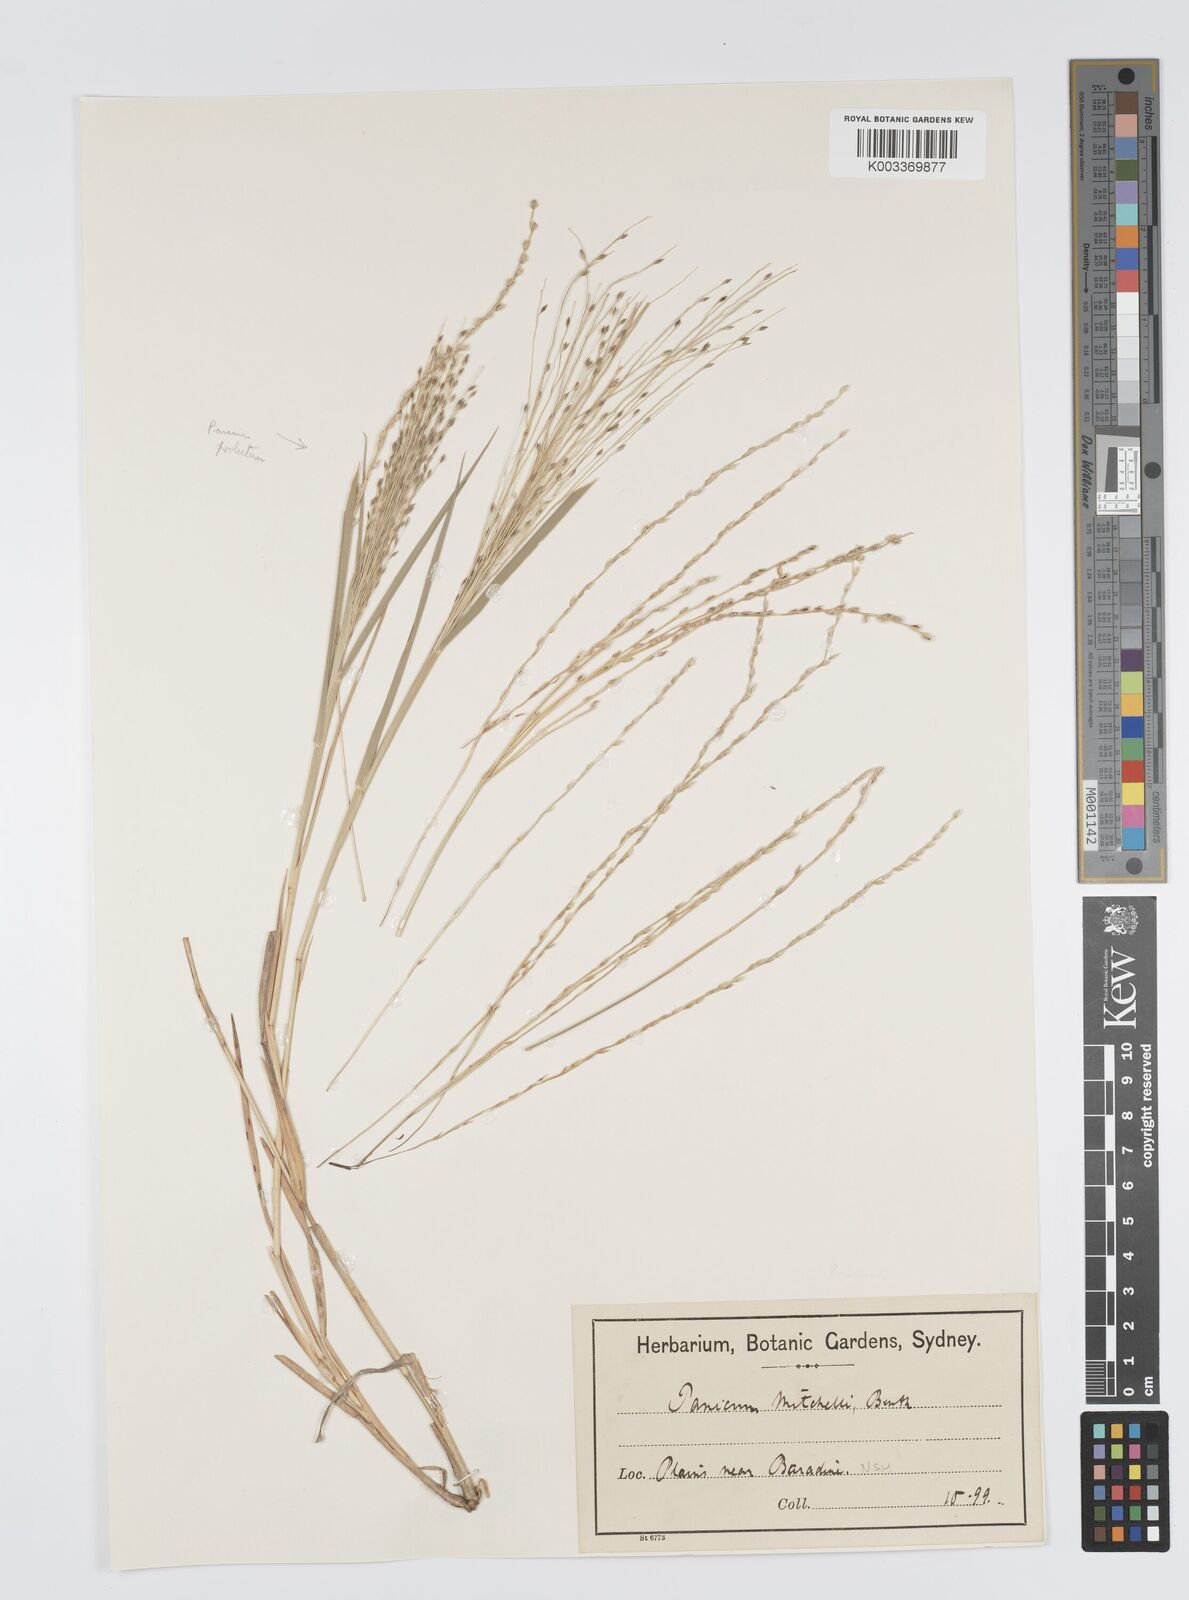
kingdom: Plantae
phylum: Tracheophyta
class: Liliopsida
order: Poales
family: Poaceae
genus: Panicum
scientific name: Panicum mitchellii
